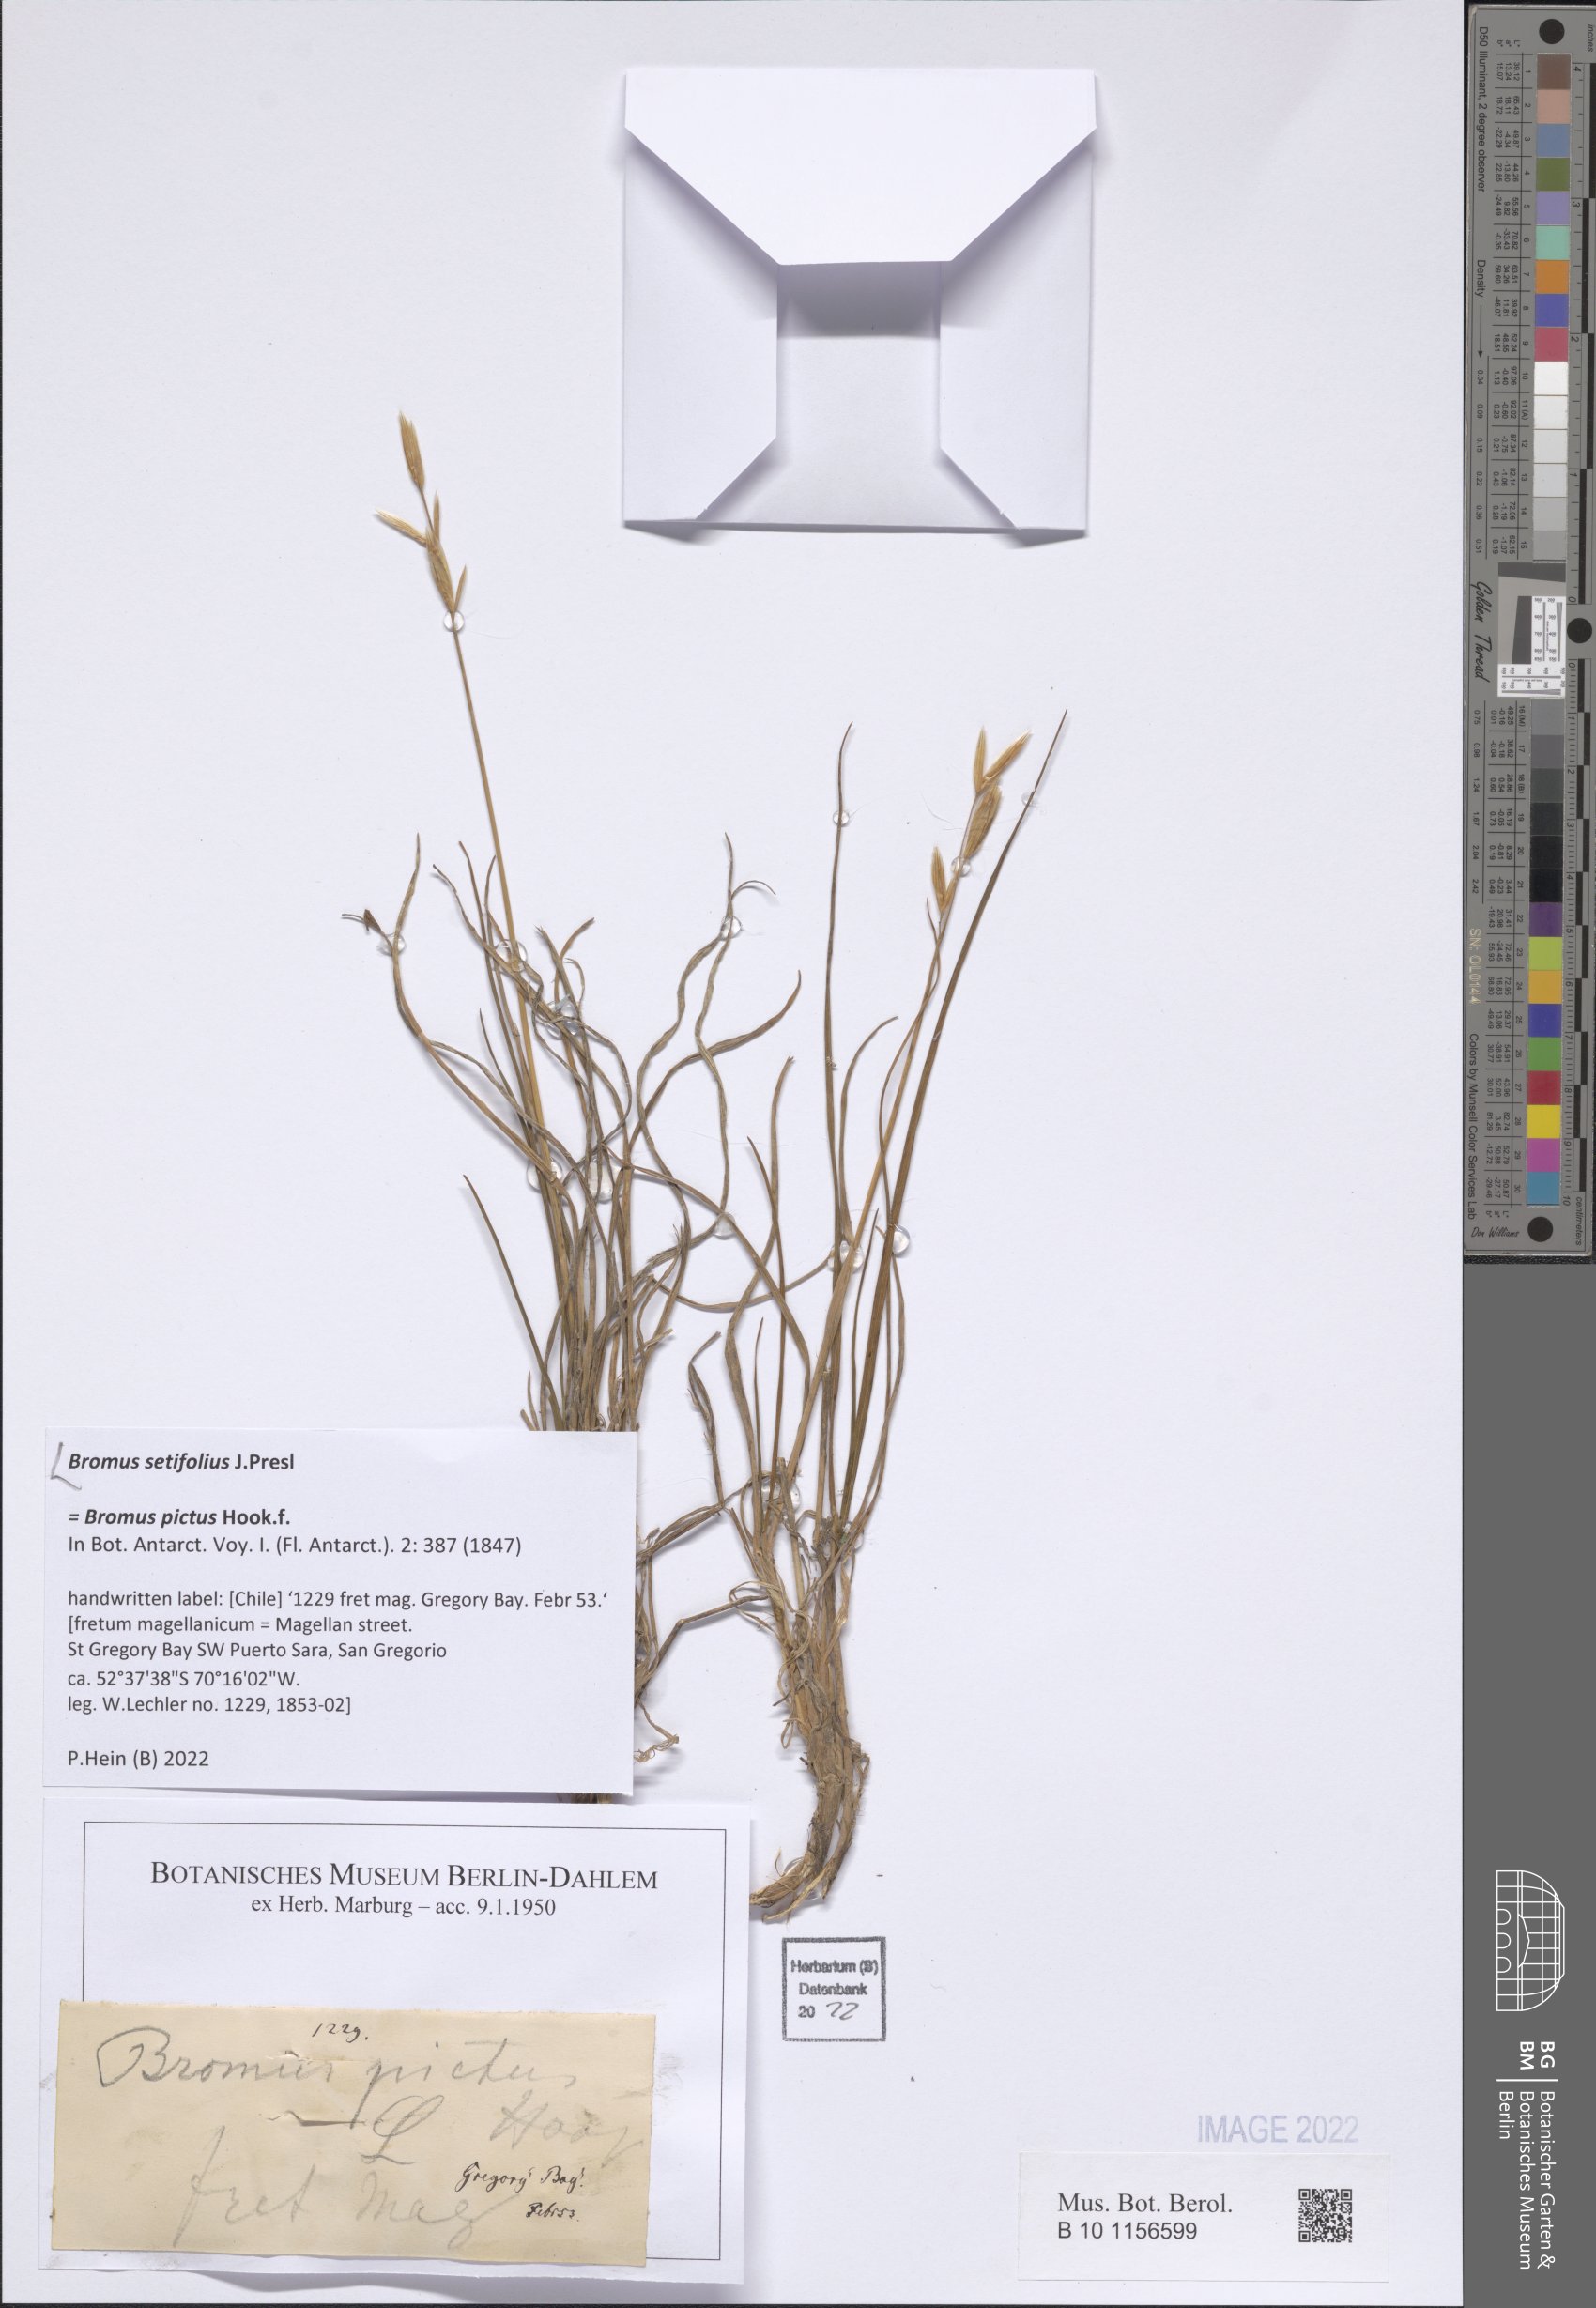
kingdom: Plantae
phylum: Tracheophyta
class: Liliopsida
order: Poales
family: Poaceae
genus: Bromus
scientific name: Bromus setifolius
